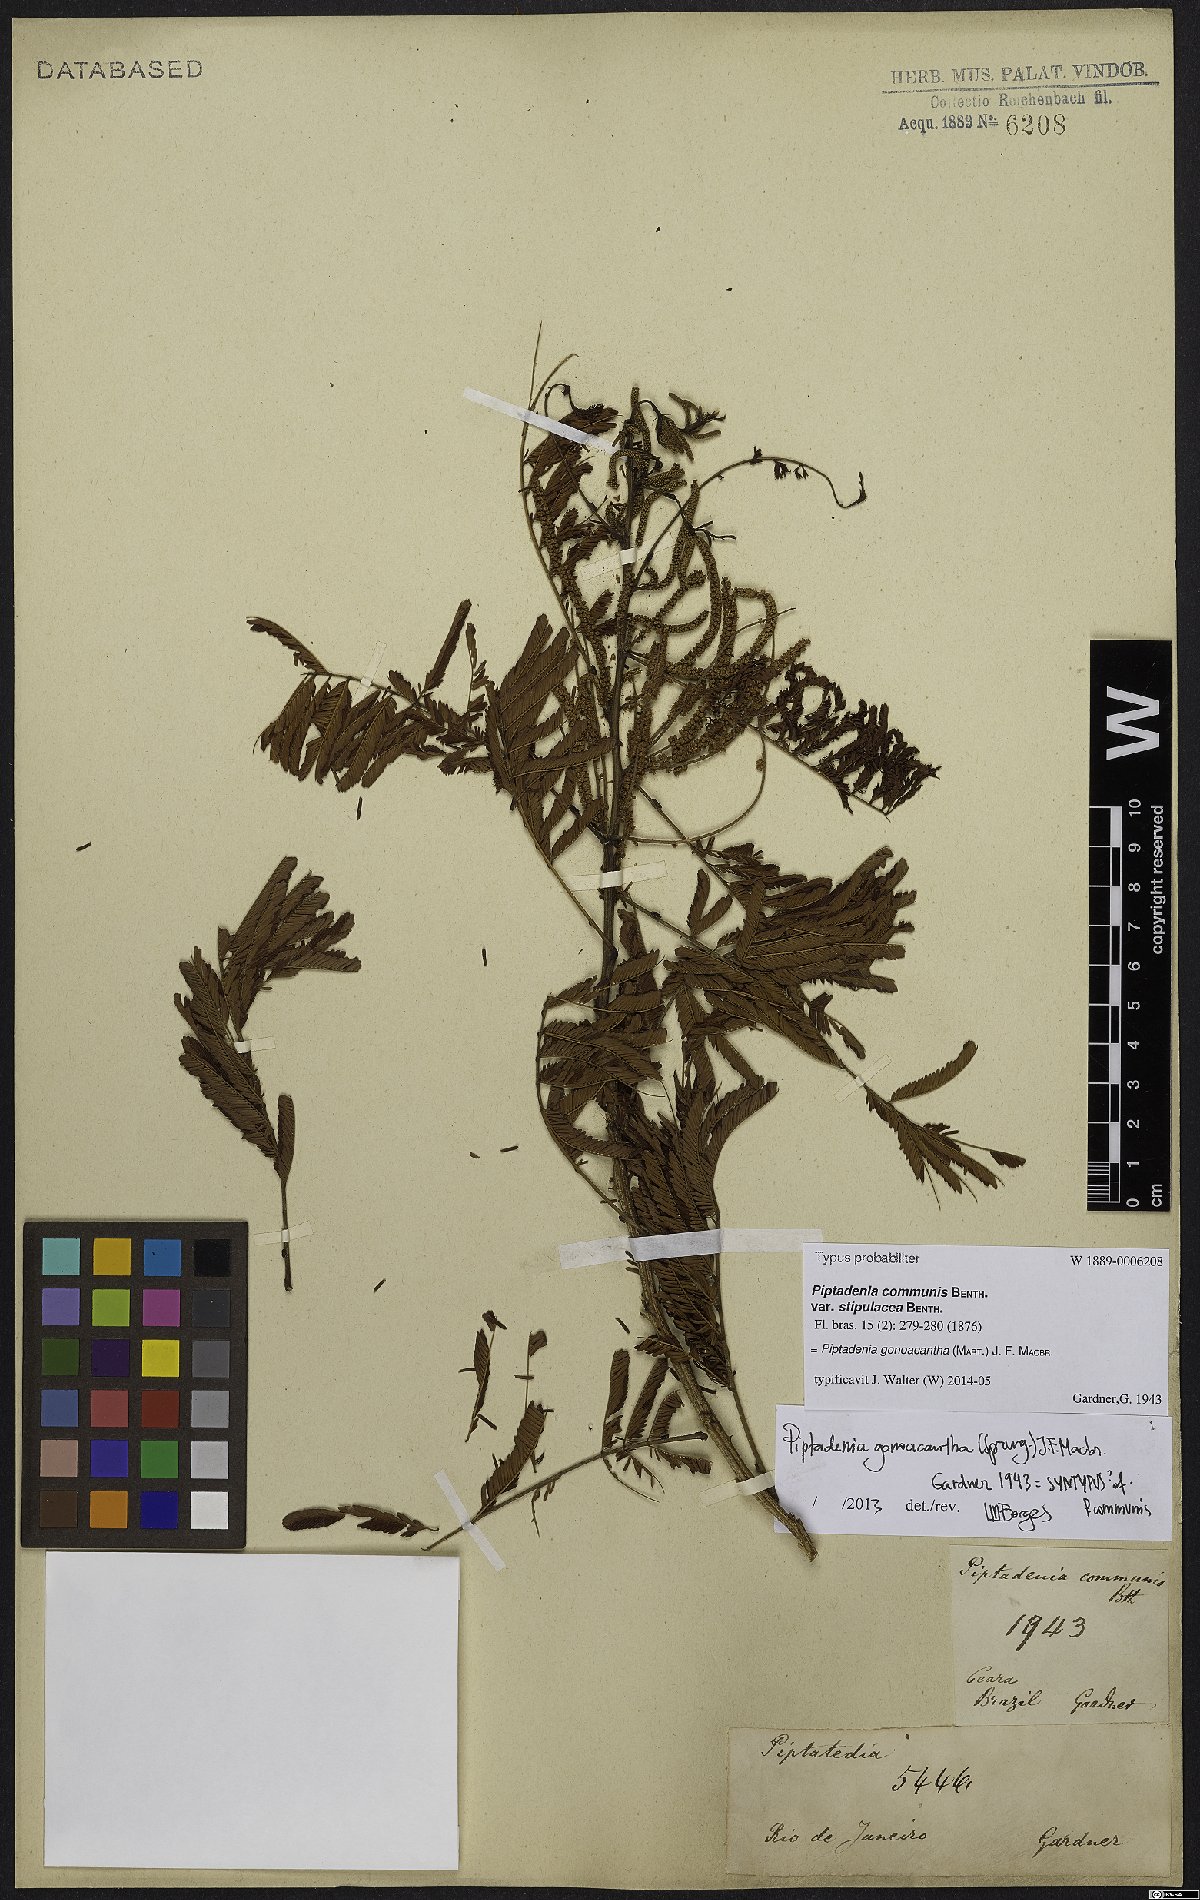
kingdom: Plantae
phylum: Tracheophyta
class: Magnoliopsida
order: Fabales
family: Fabaceae
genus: Piptadenia
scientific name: Piptadenia gonoacantha
